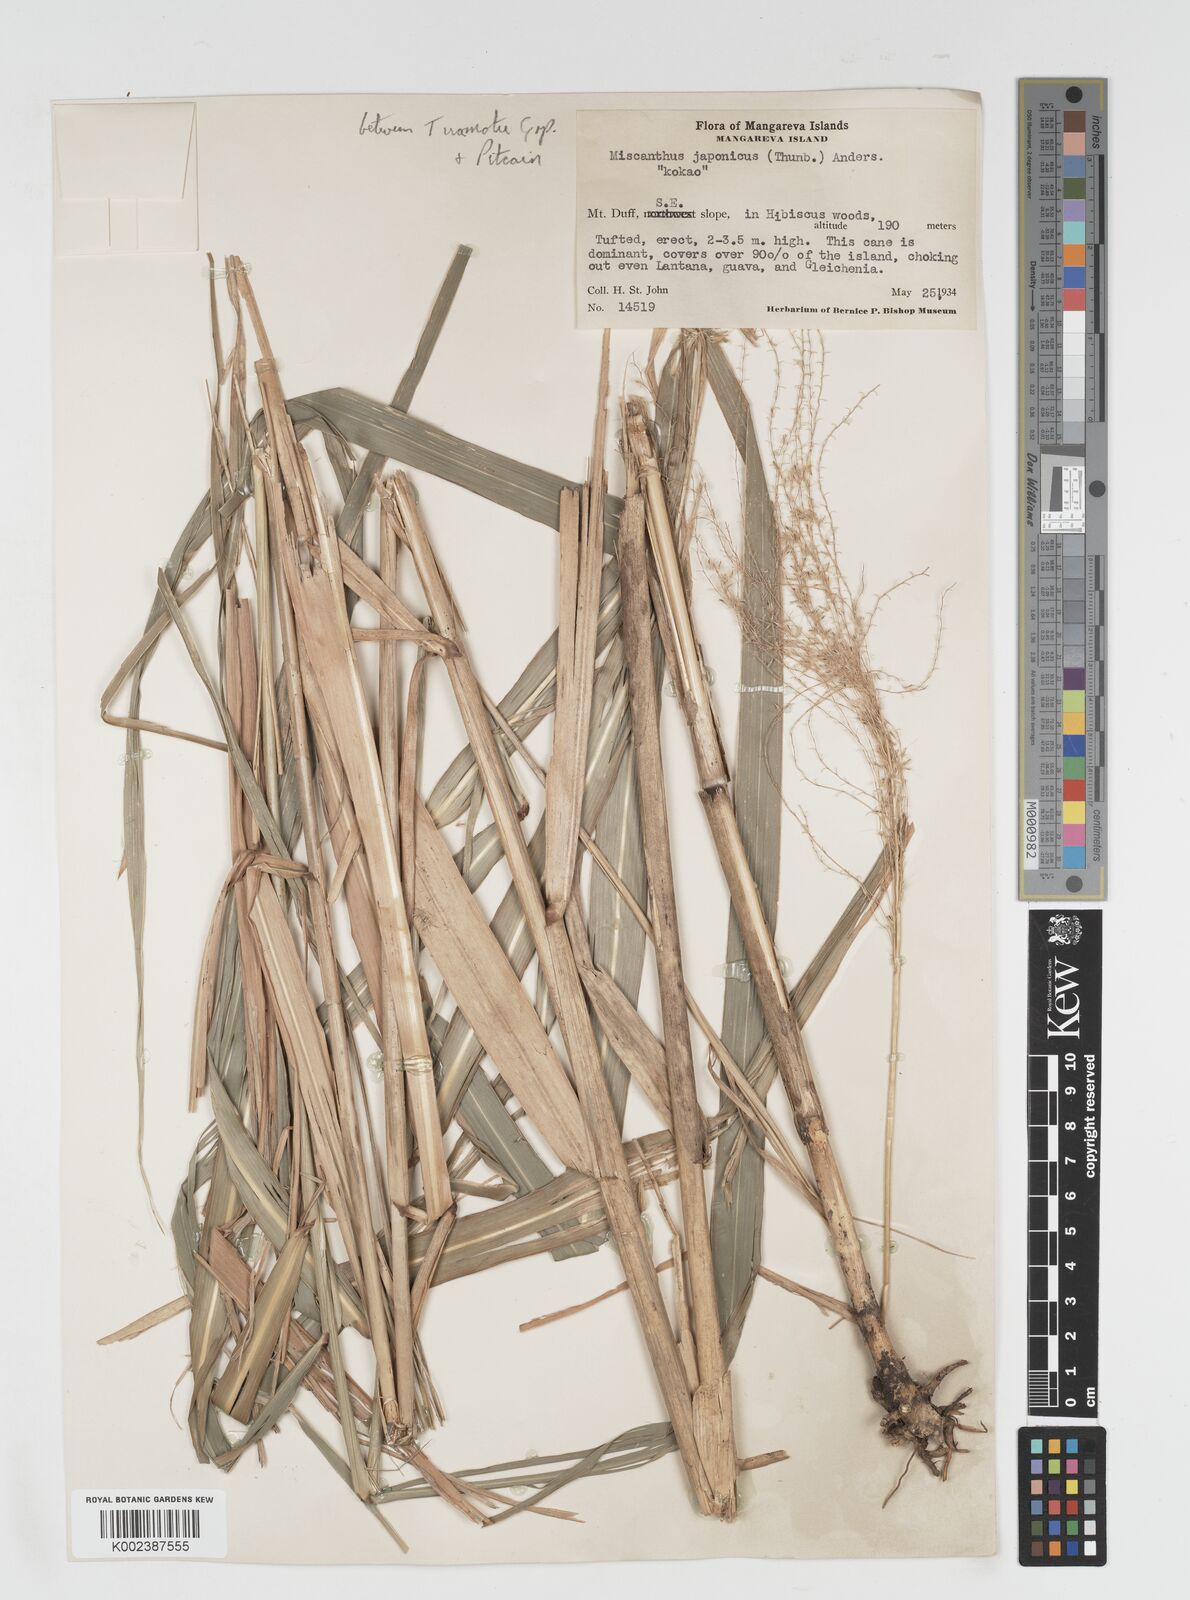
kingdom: Plantae
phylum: Tracheophyta
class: Liliopsida
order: Poales
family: Poaceae
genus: Miscanthus
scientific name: Miscanthus
